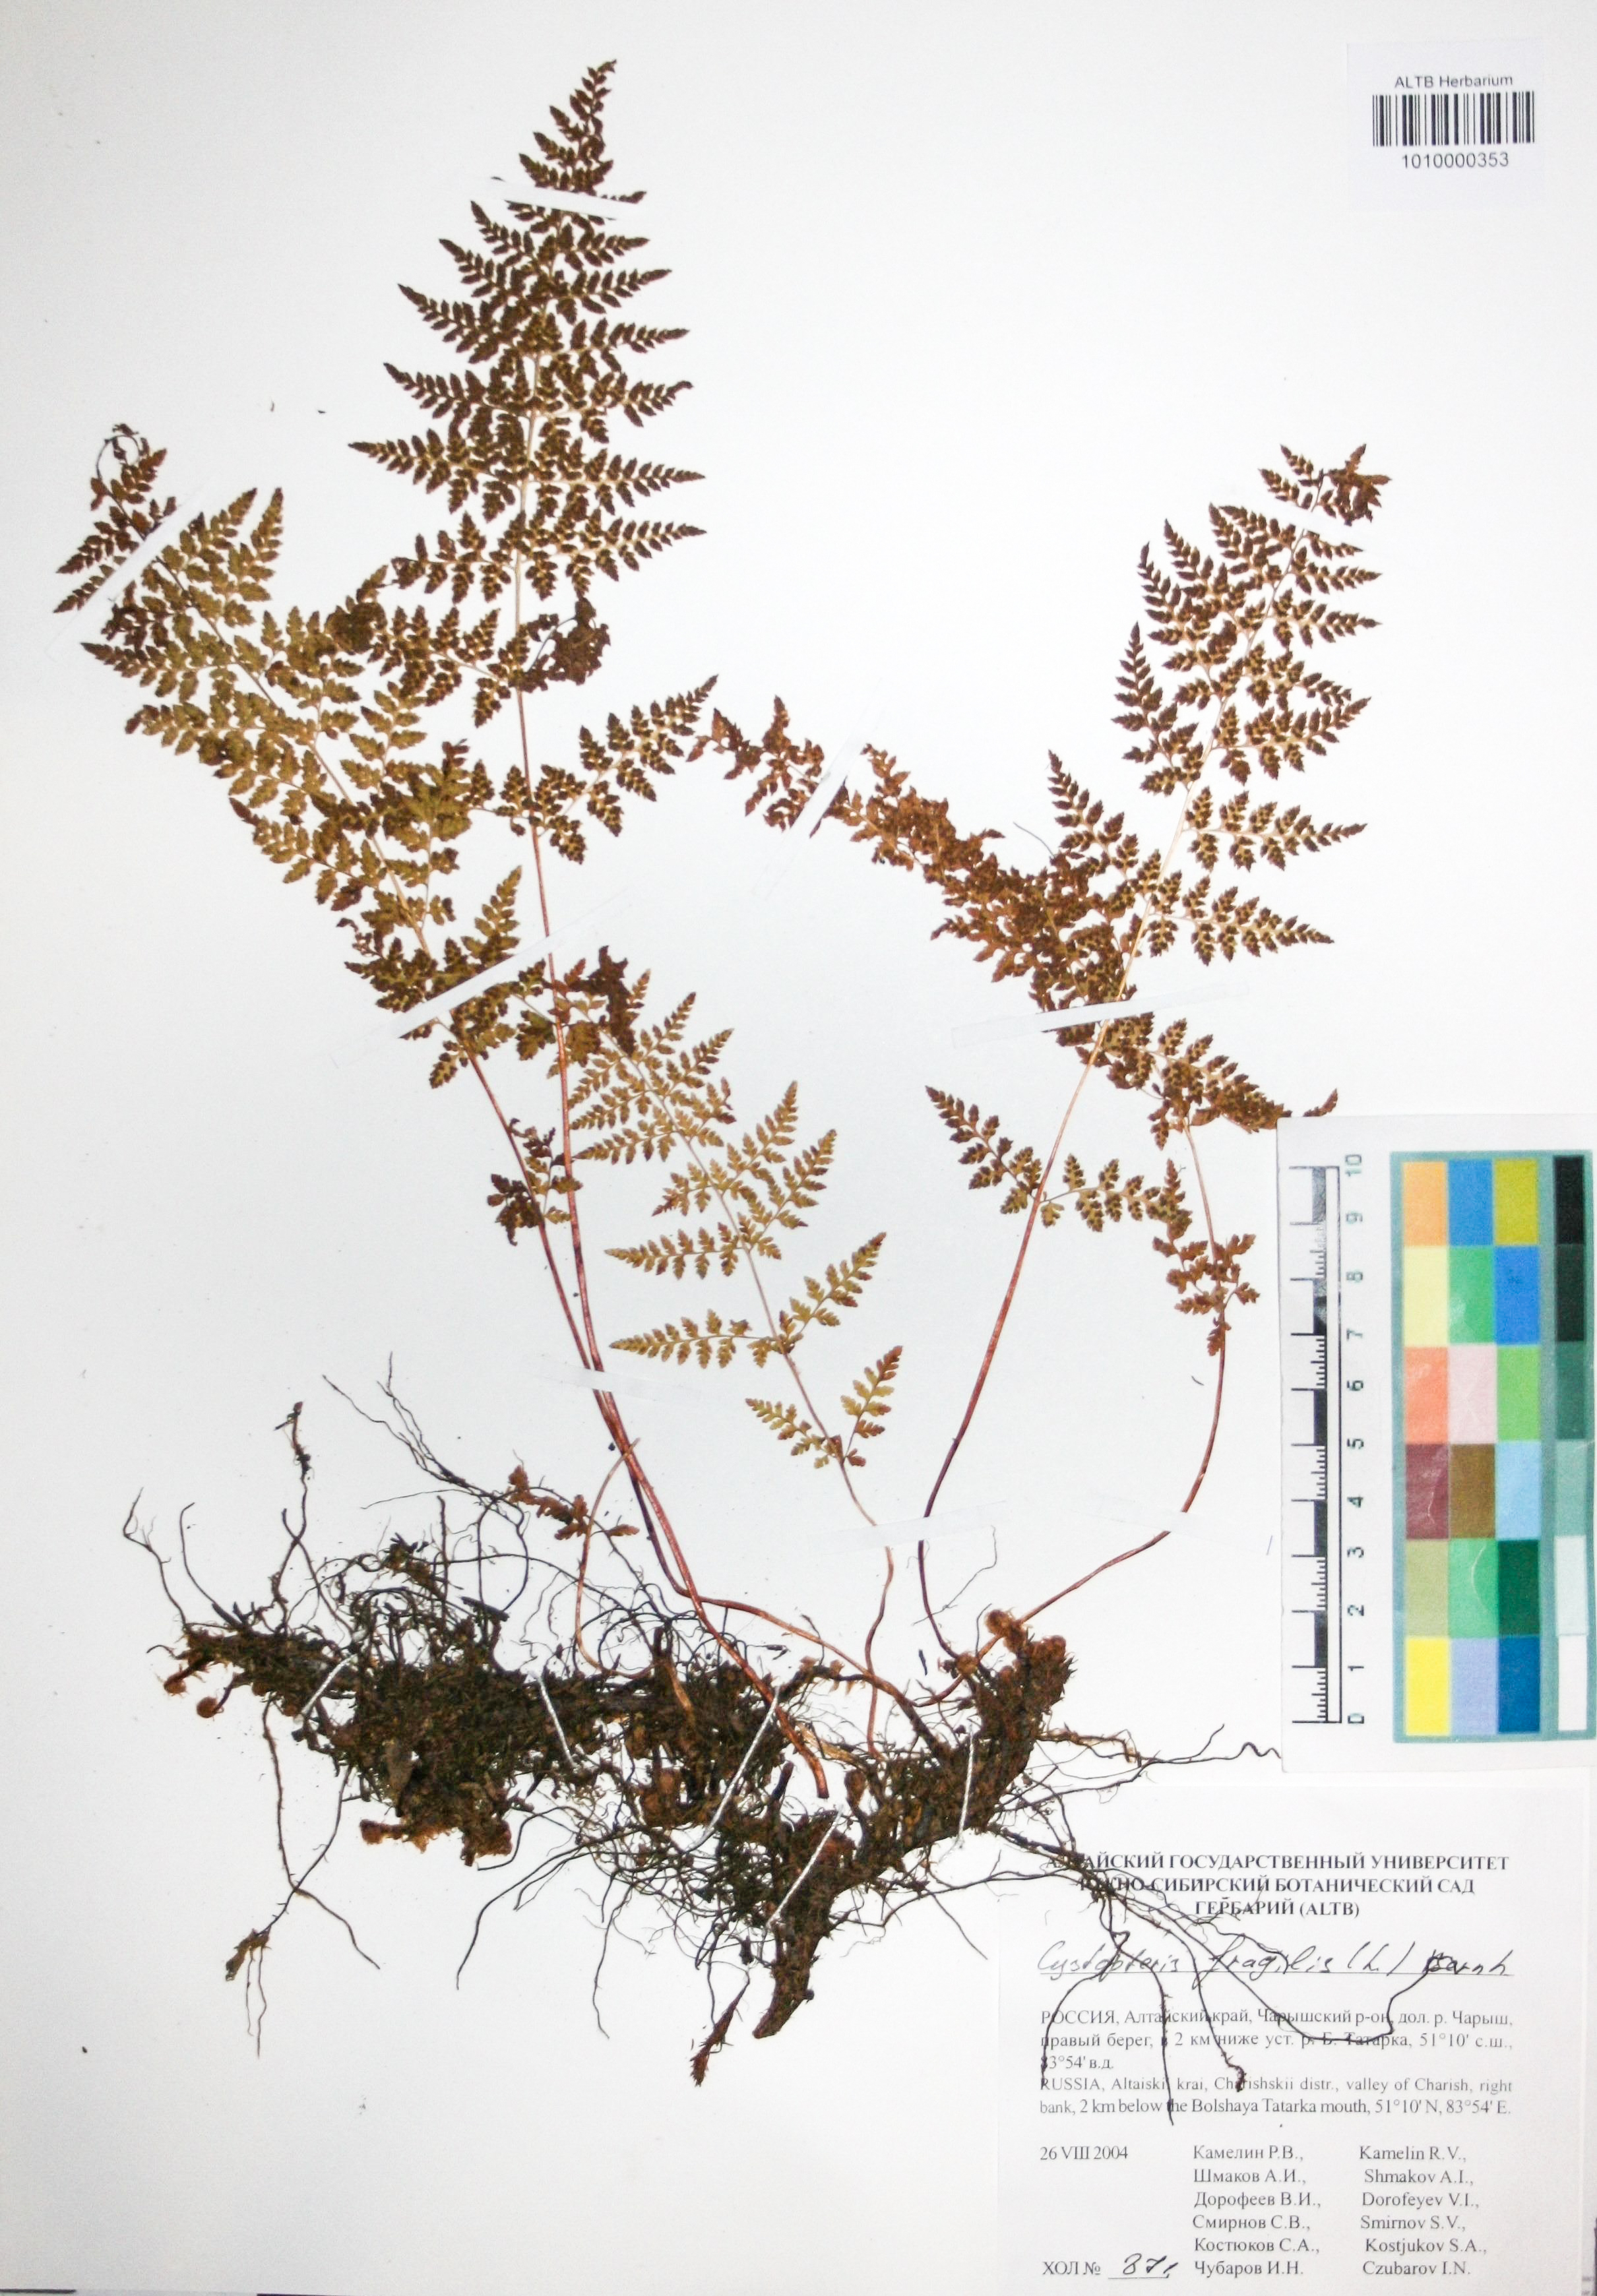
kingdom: Plantae
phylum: Tracheophyta
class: Polypodiopsida
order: Polypodiales
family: Cystopteridaceae
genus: Cystopteris
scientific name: Cystopteris fragilis
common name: Brittle bladder fern
